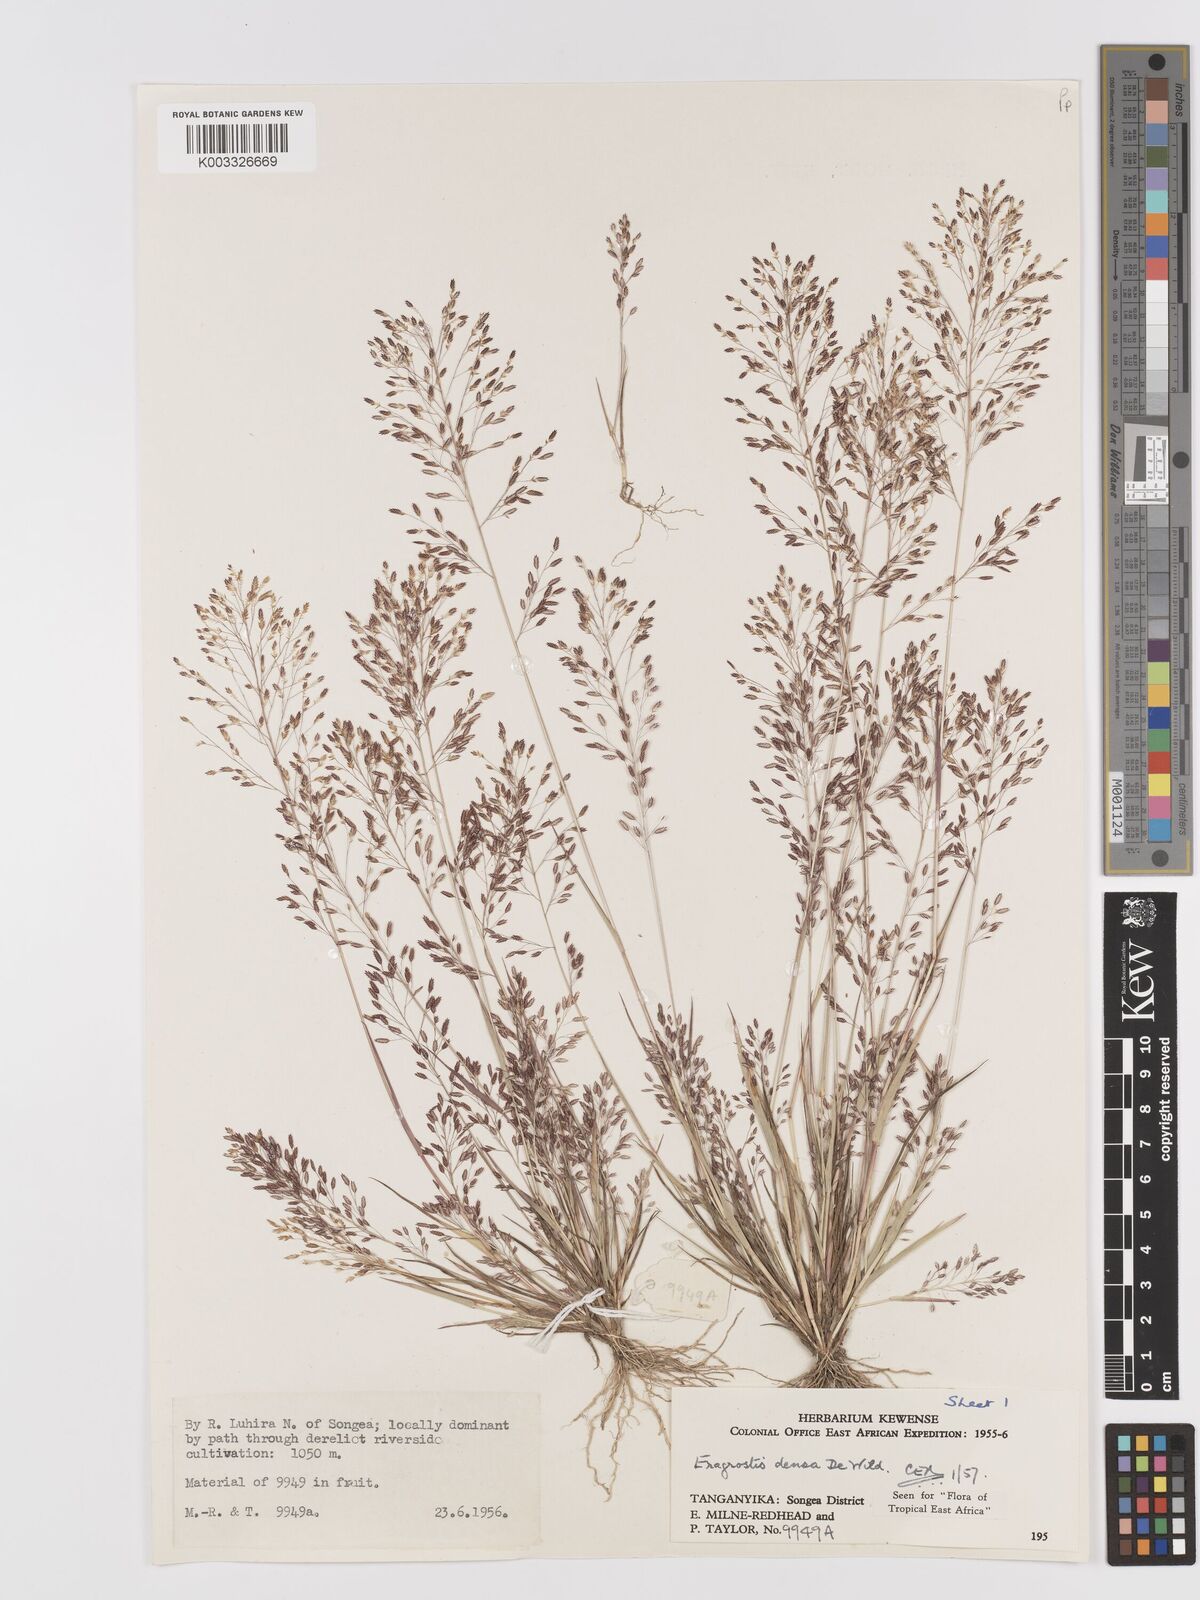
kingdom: Plantae
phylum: Tracheophyta
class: Liliopsida
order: Poales
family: Poaceae
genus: Eragrostis
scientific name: Eragrostis welwitschii
